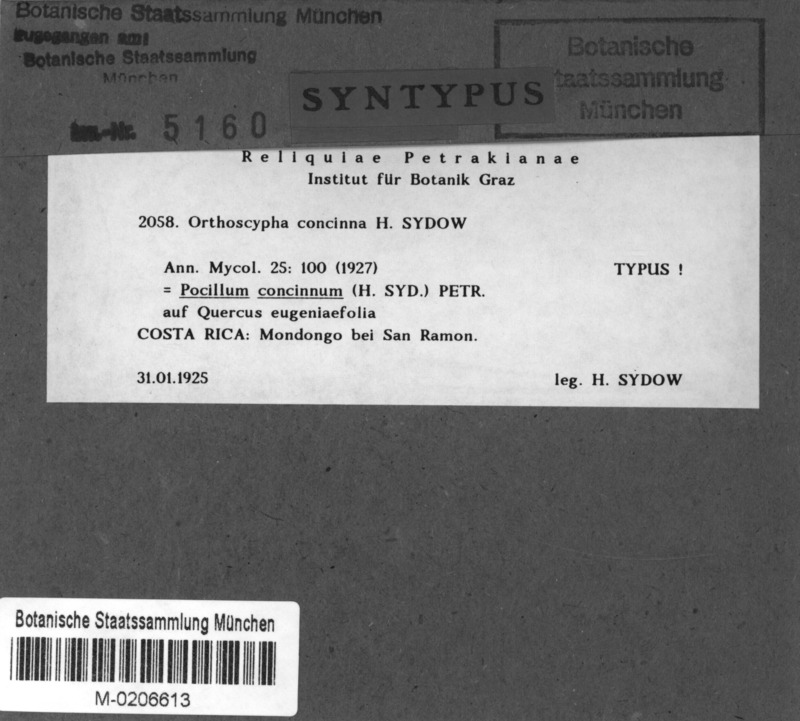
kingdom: Fungi
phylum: Ascomycota
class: Leotiomycetes
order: Helotiales
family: Vibrisseaceae
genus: Pocillum
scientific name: Pocillum concinnum
